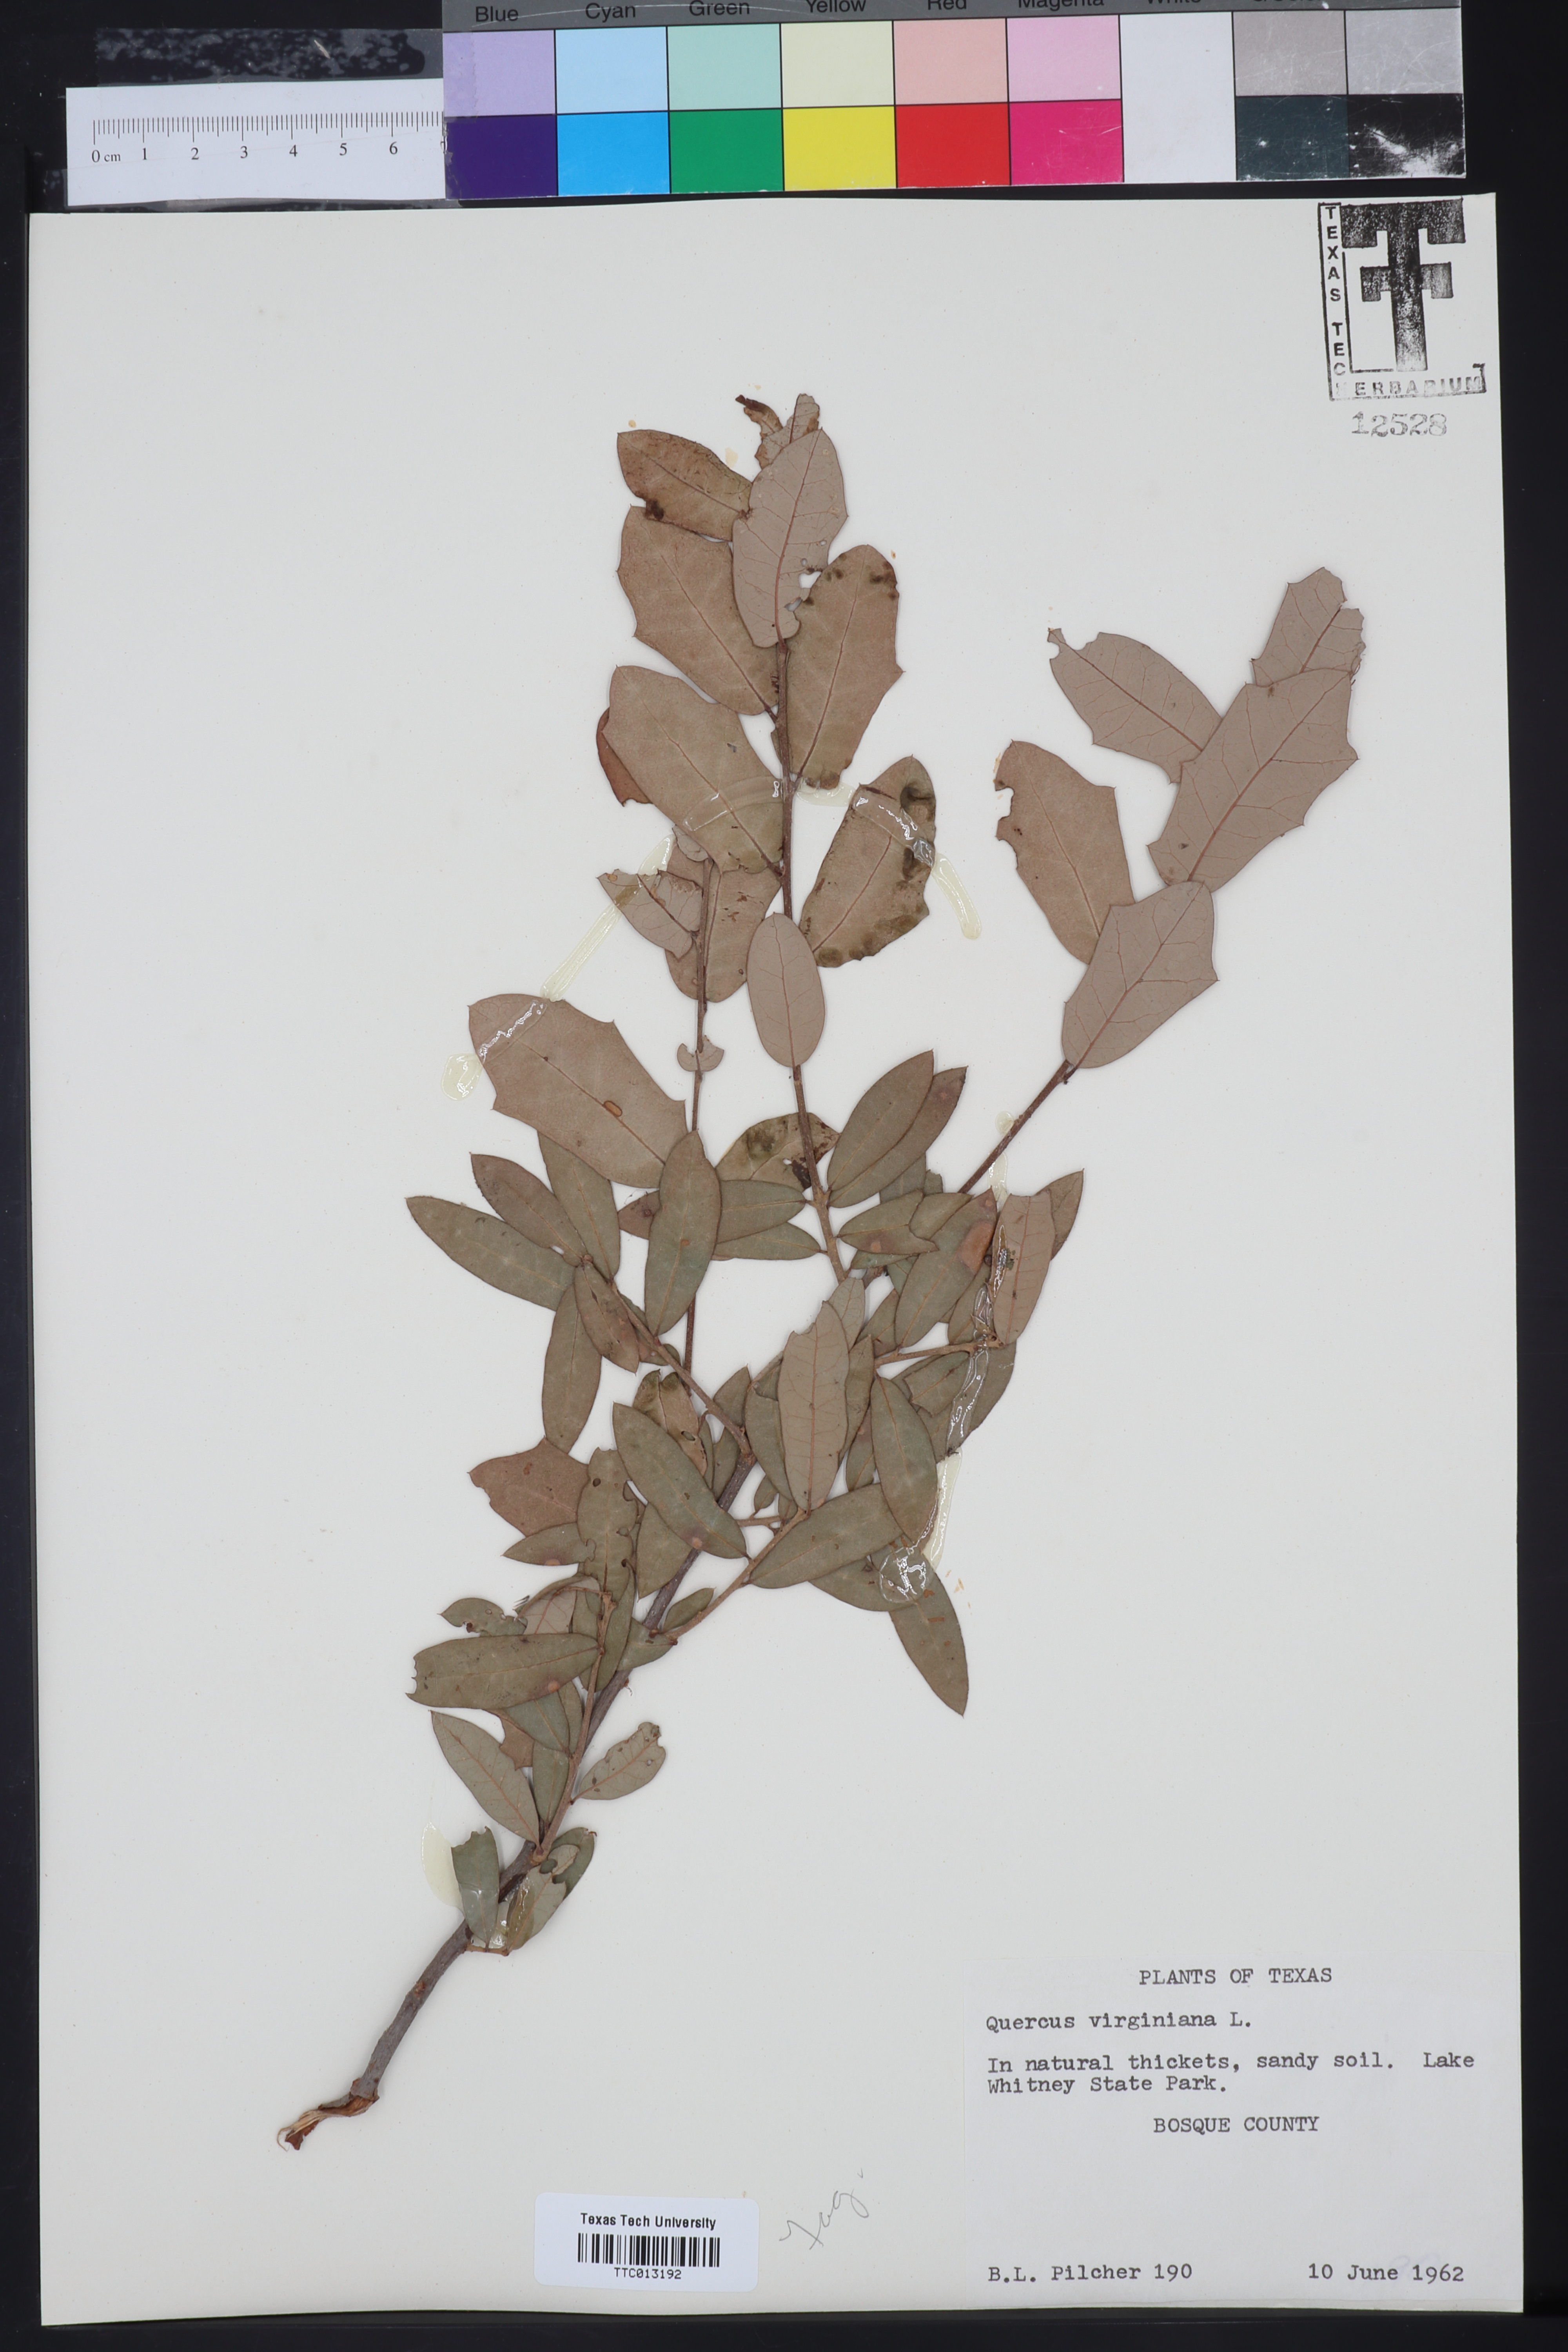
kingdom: Plantae
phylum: Tracheophyta
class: Magnoliopsida
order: Fagales
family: Fagaceae
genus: Quercus
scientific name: Quercus virginiana
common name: Southern live oak
